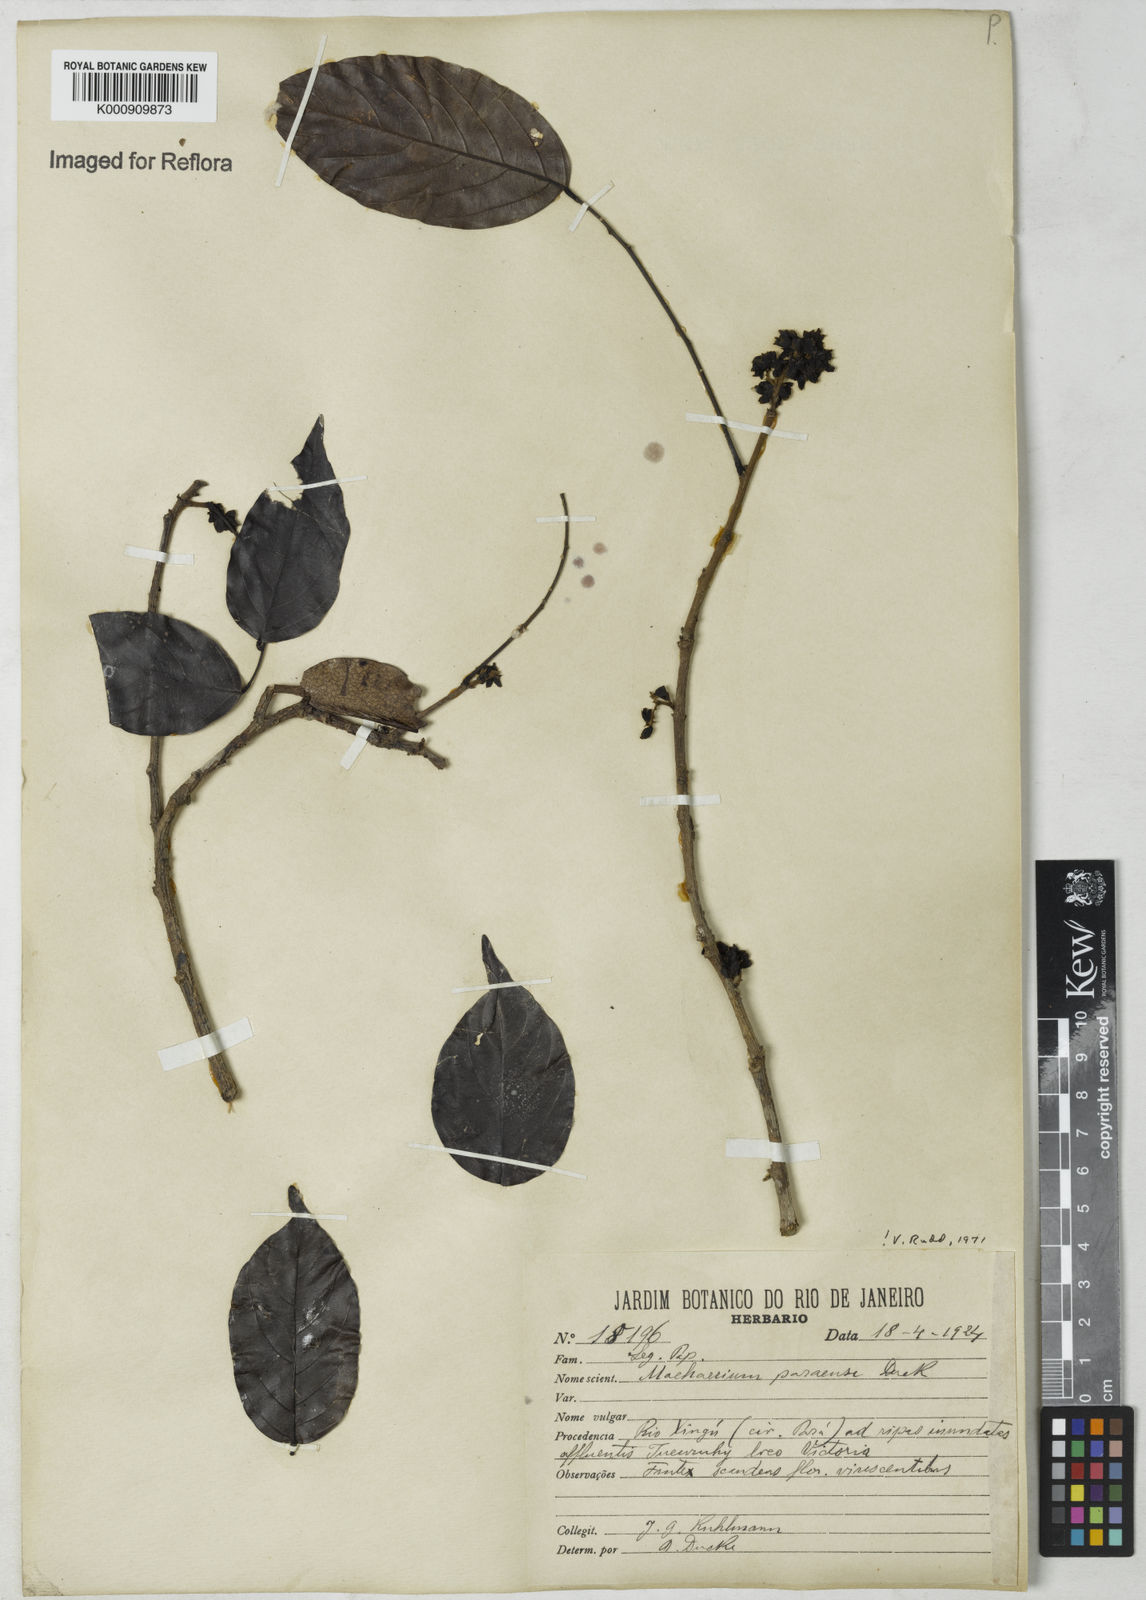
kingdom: Plantae
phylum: Tracheophyta
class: Magnoliopsida
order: Fabales
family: Fabaceae
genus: Machaerium
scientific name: Machaerium paraense
